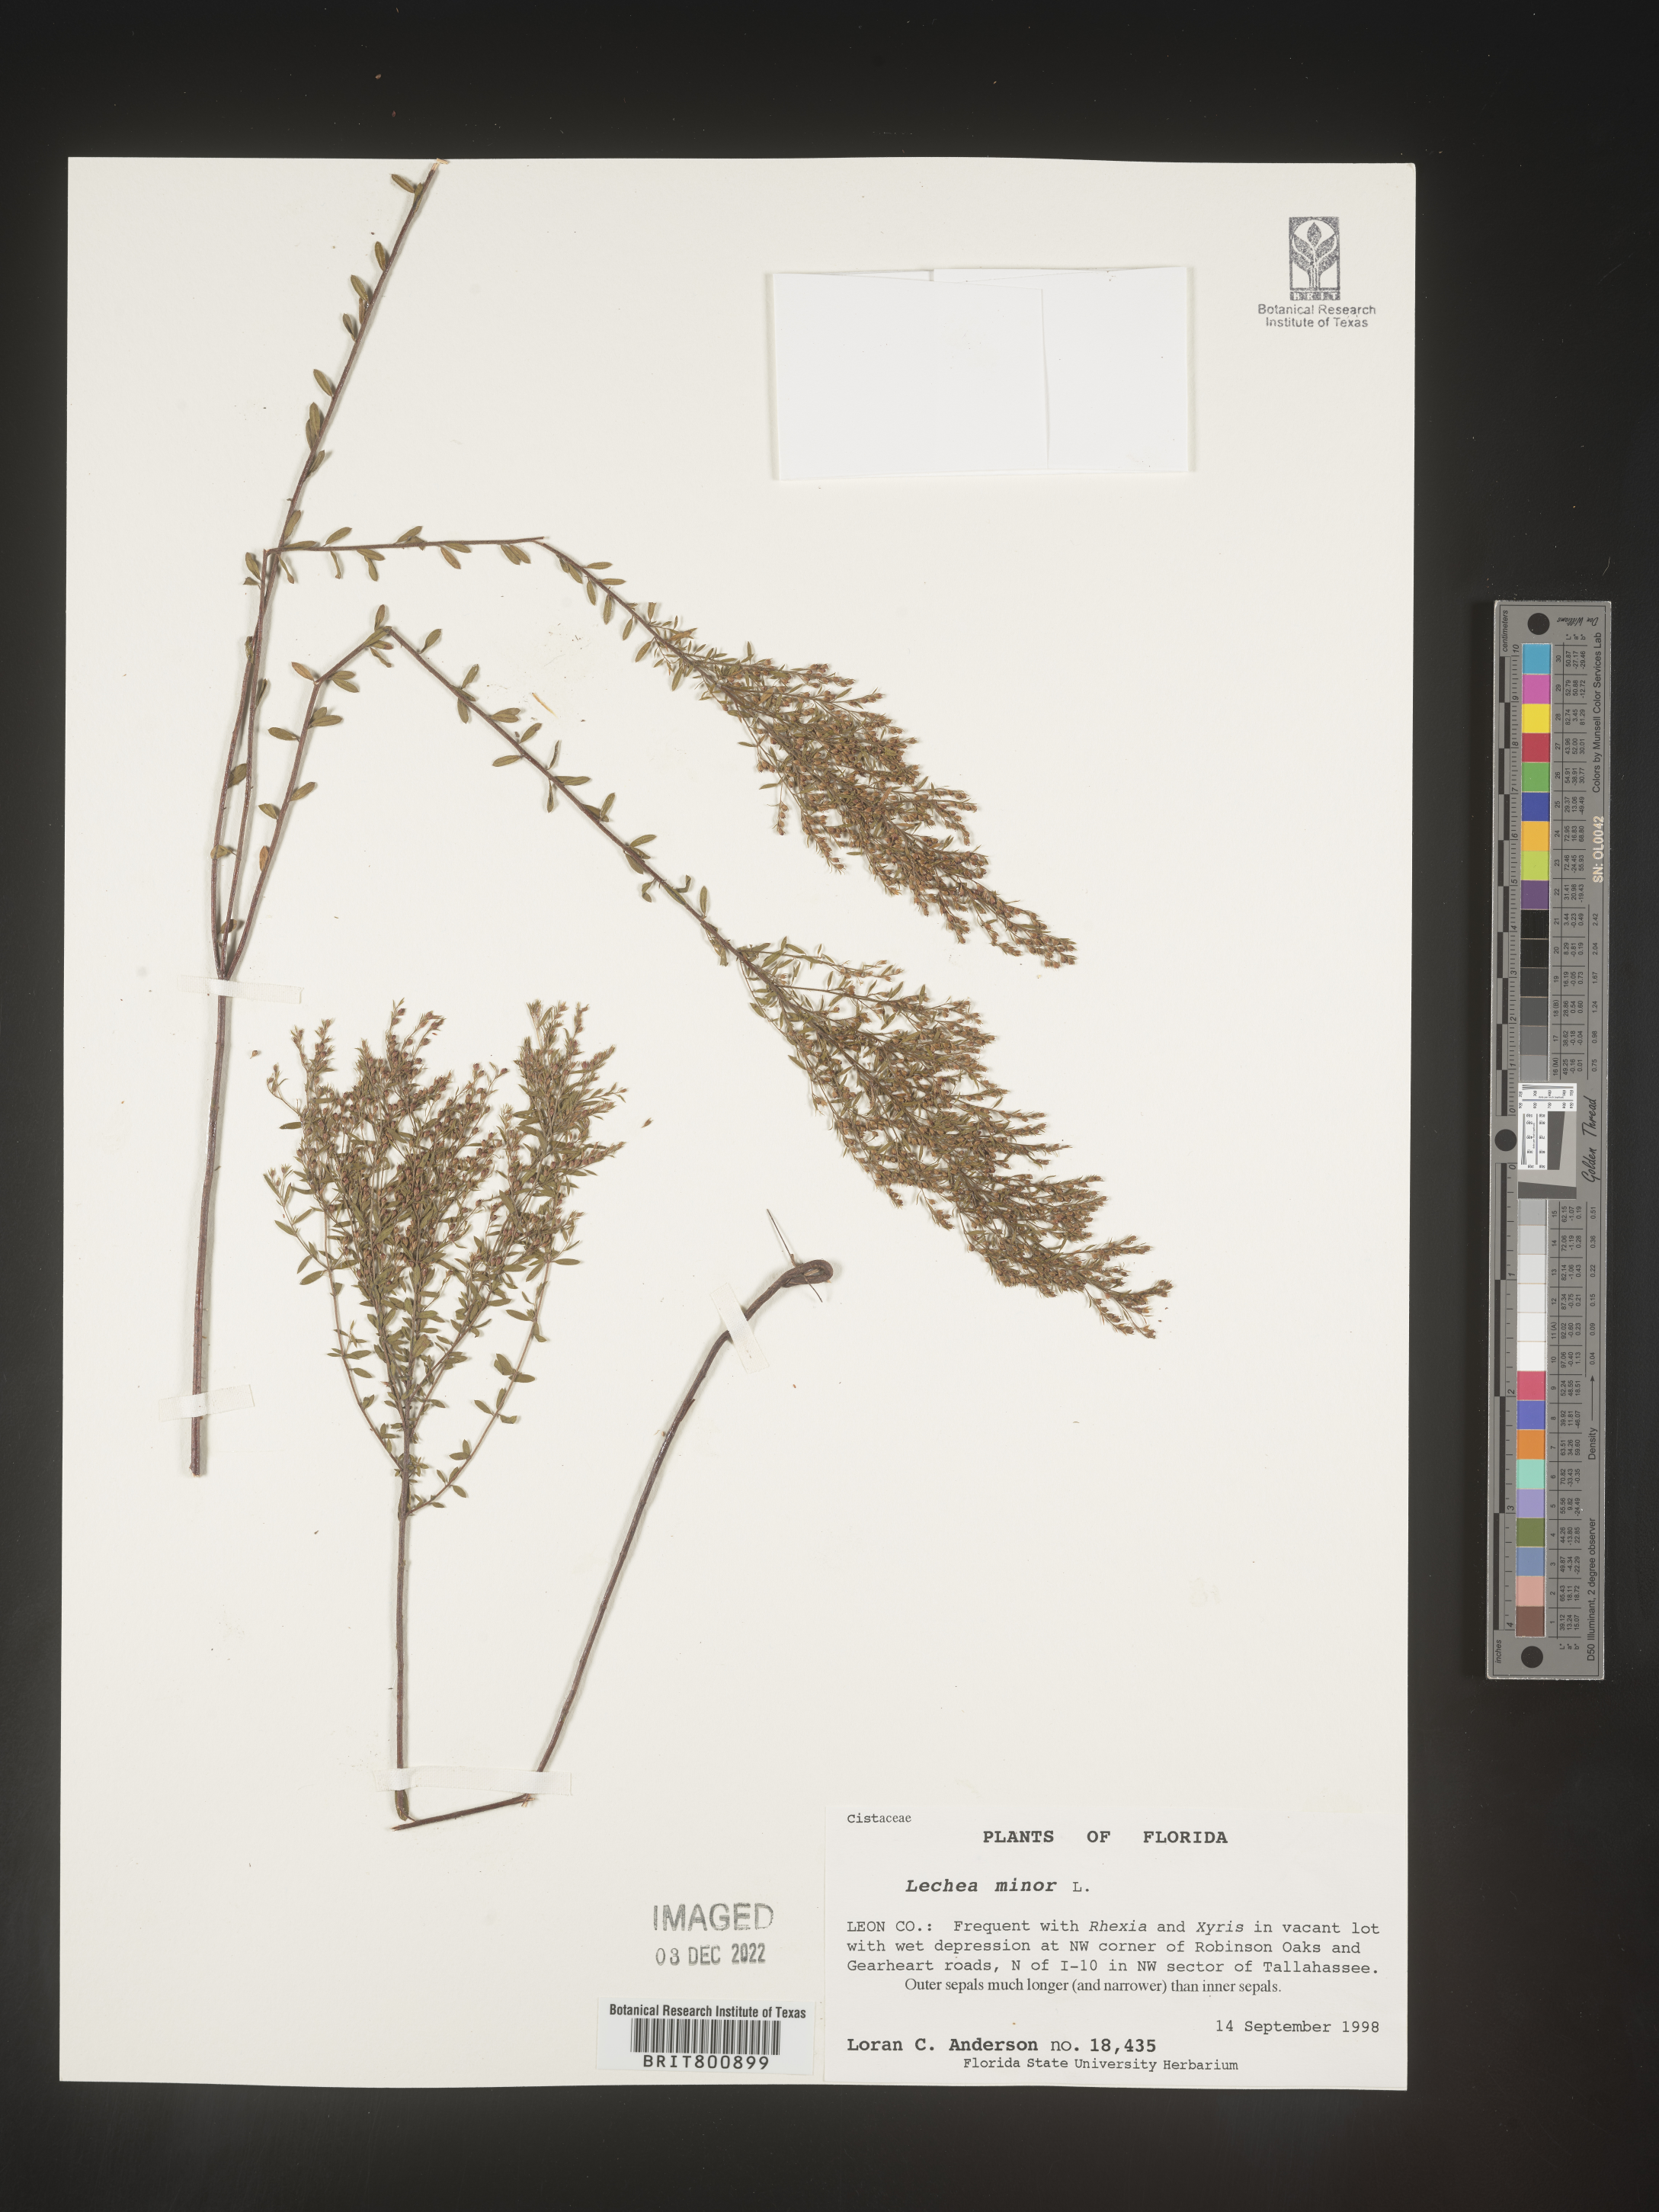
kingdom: Plantae
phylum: Tracheophyta
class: Magnoliopsida
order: Malvales
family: Cistaceae
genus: Lechea
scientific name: Lechea minor
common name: Thyme-leaf pinweed
